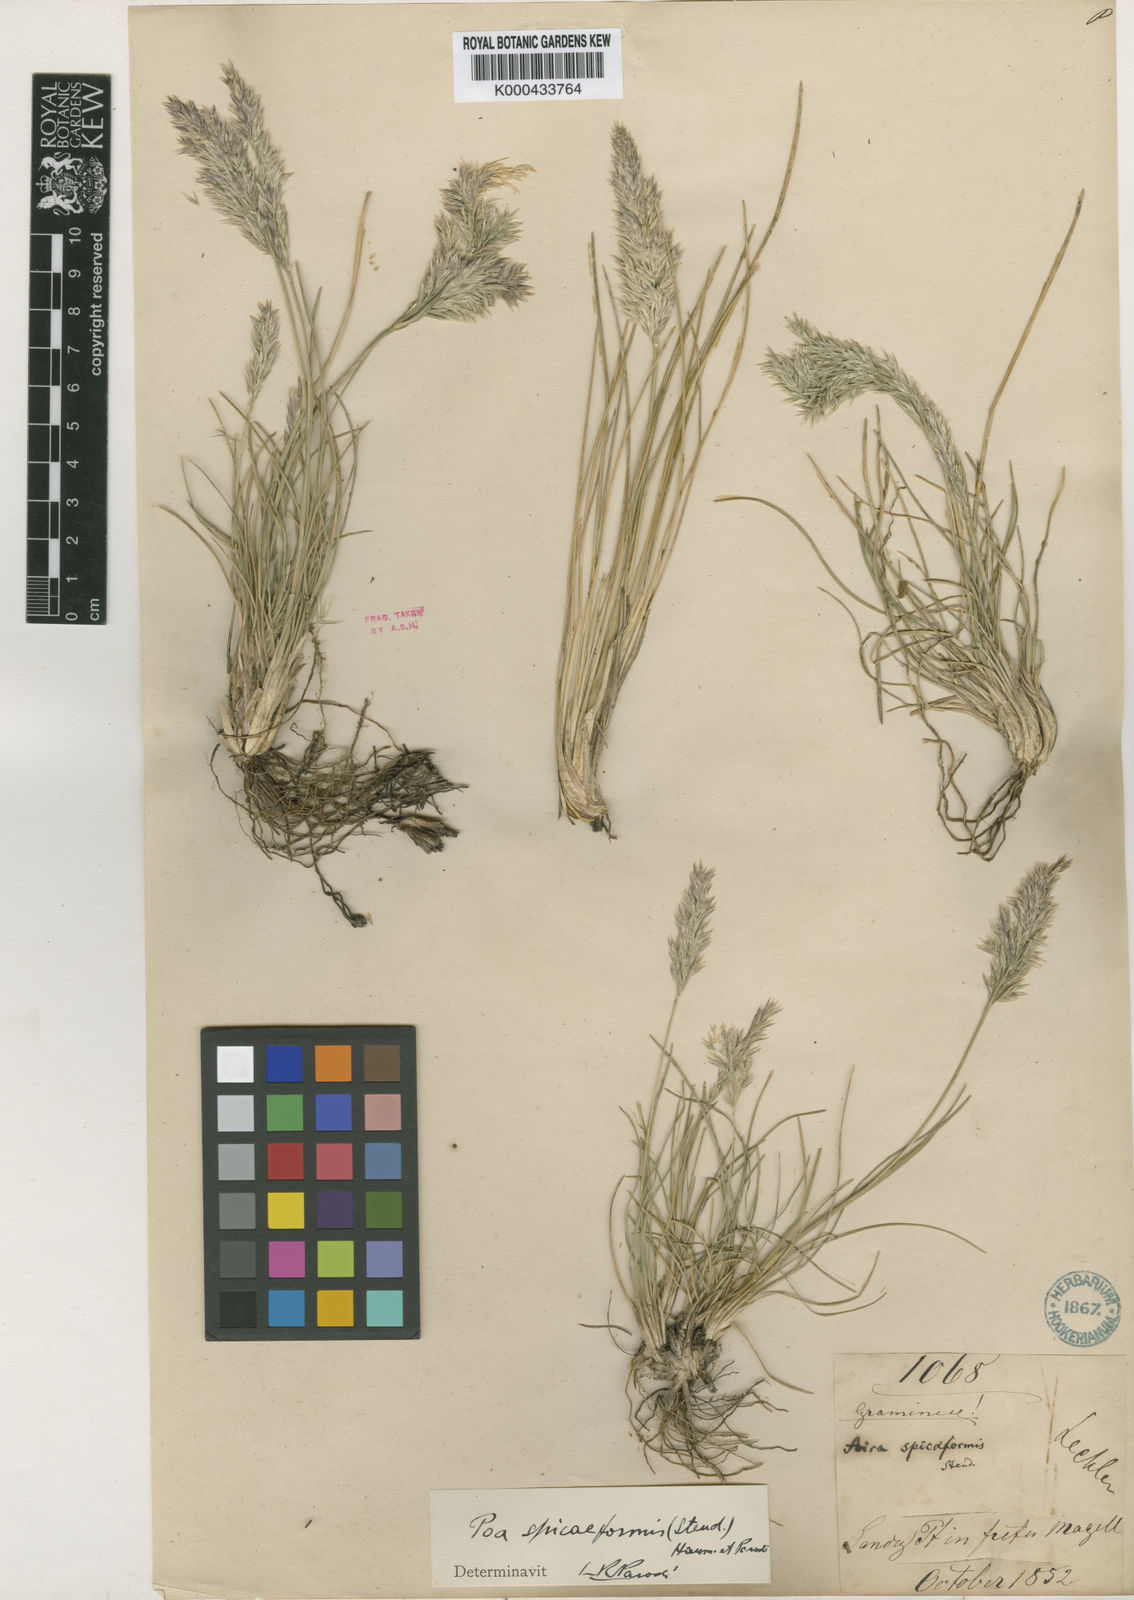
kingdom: Plantae
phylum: Tracheophyta
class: Liliopsida
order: Poales
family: Poaceae
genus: Poa
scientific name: Poa spiciformis
